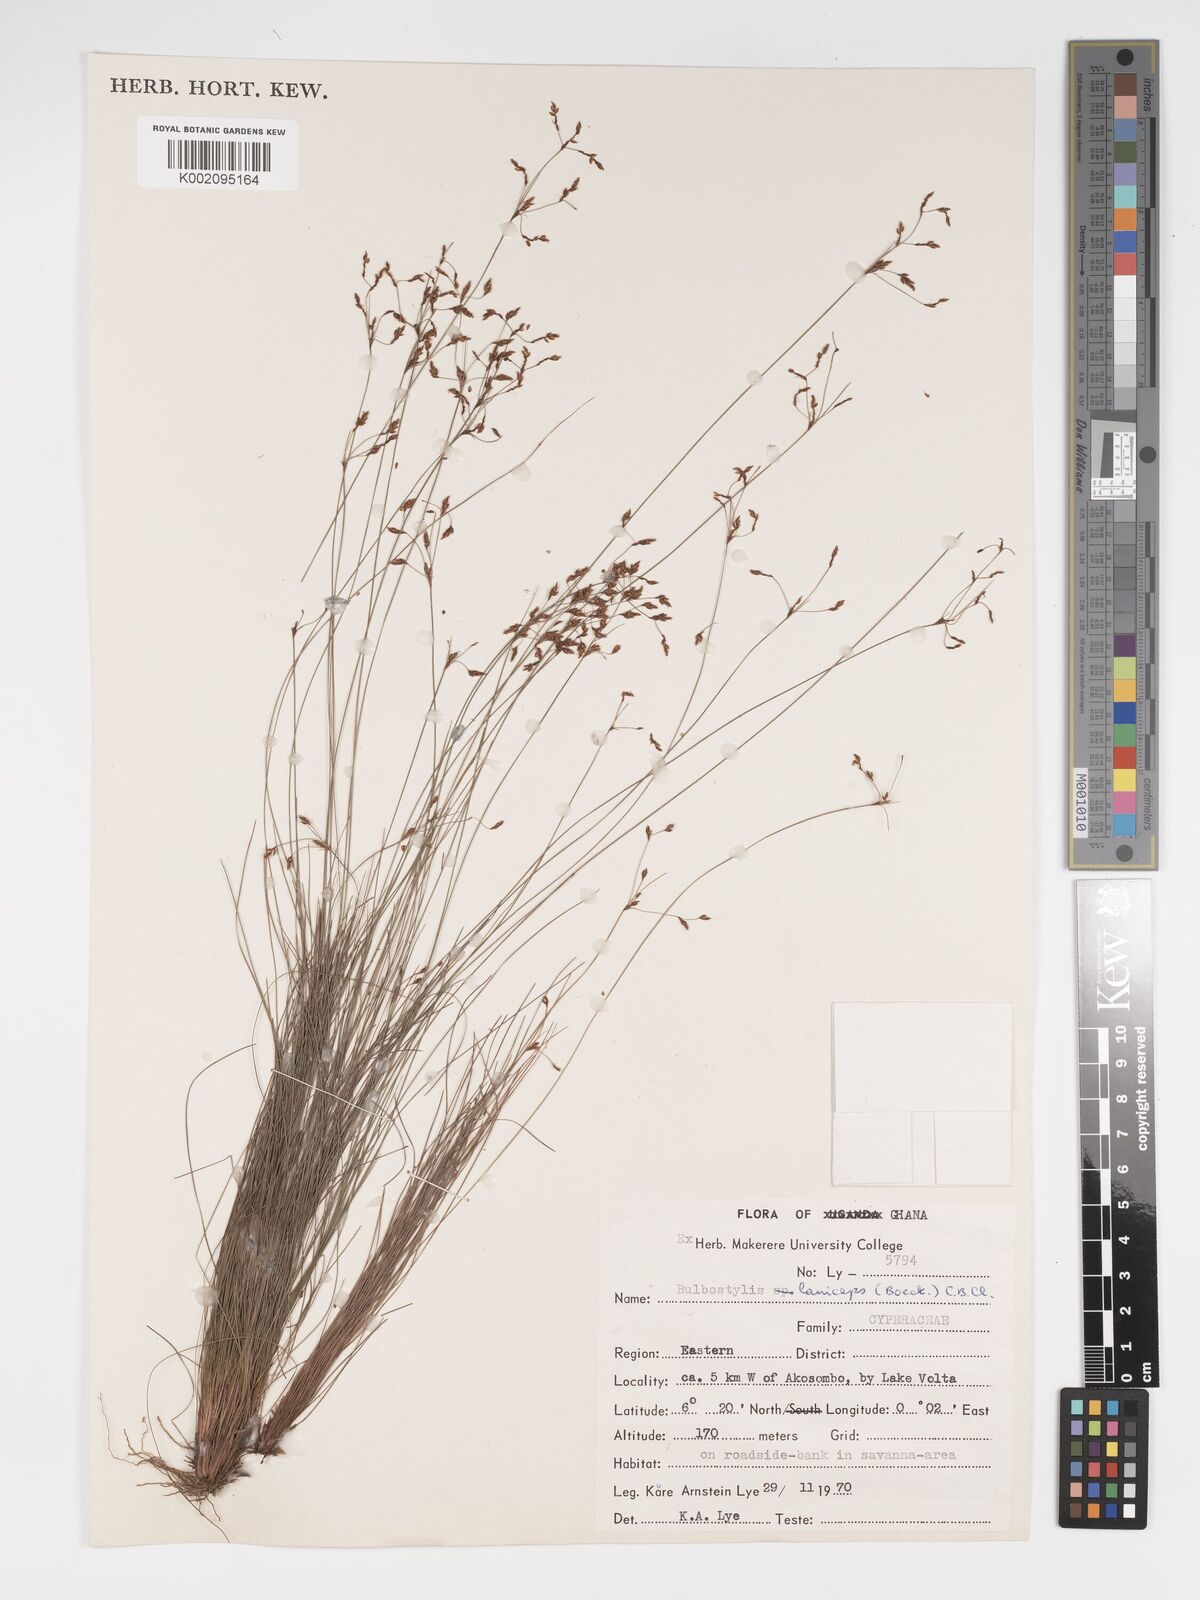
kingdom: Plantae
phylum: Tracheophyta
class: Liliopsida
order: Poales
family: Cyperaceae
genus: Bulbostylis
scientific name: Bulbostylis lanifera
